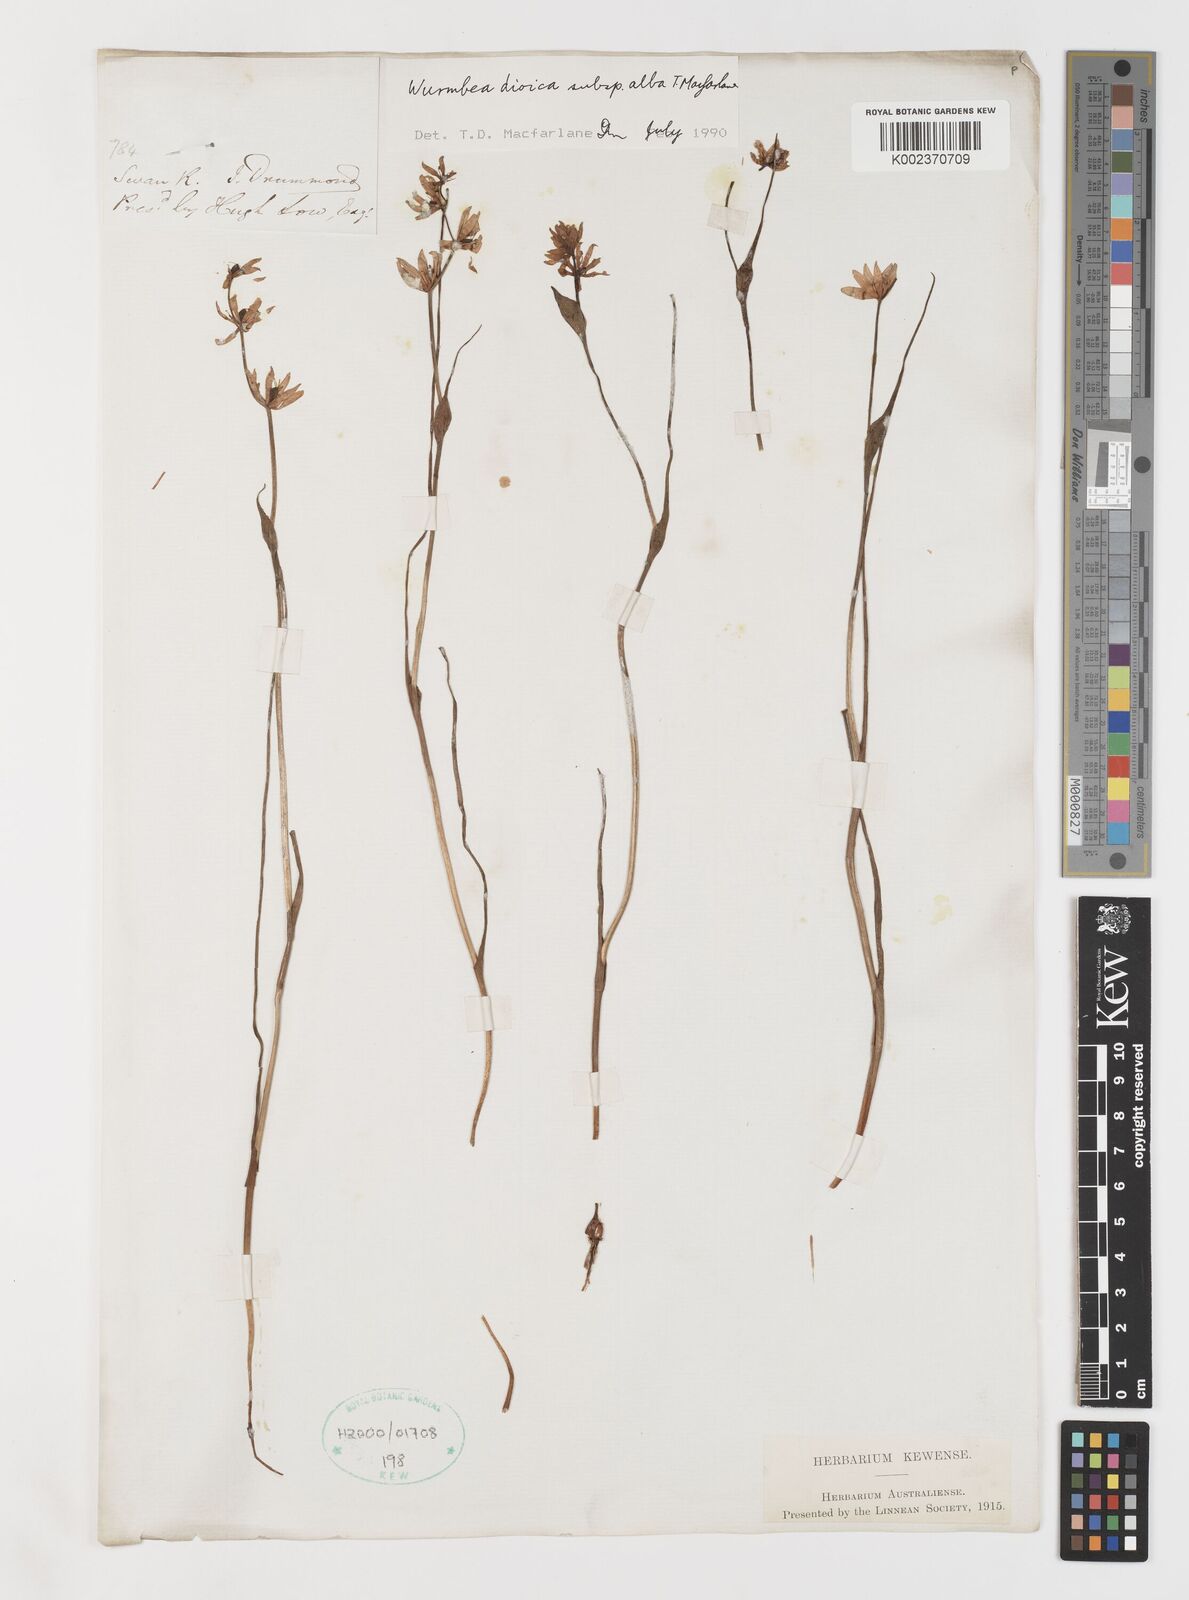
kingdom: Plantae
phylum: Tracheophyta
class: Liliopsida
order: Liliales
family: Colchicaceae
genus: Wurmbea
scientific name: Wurmbea dioica
